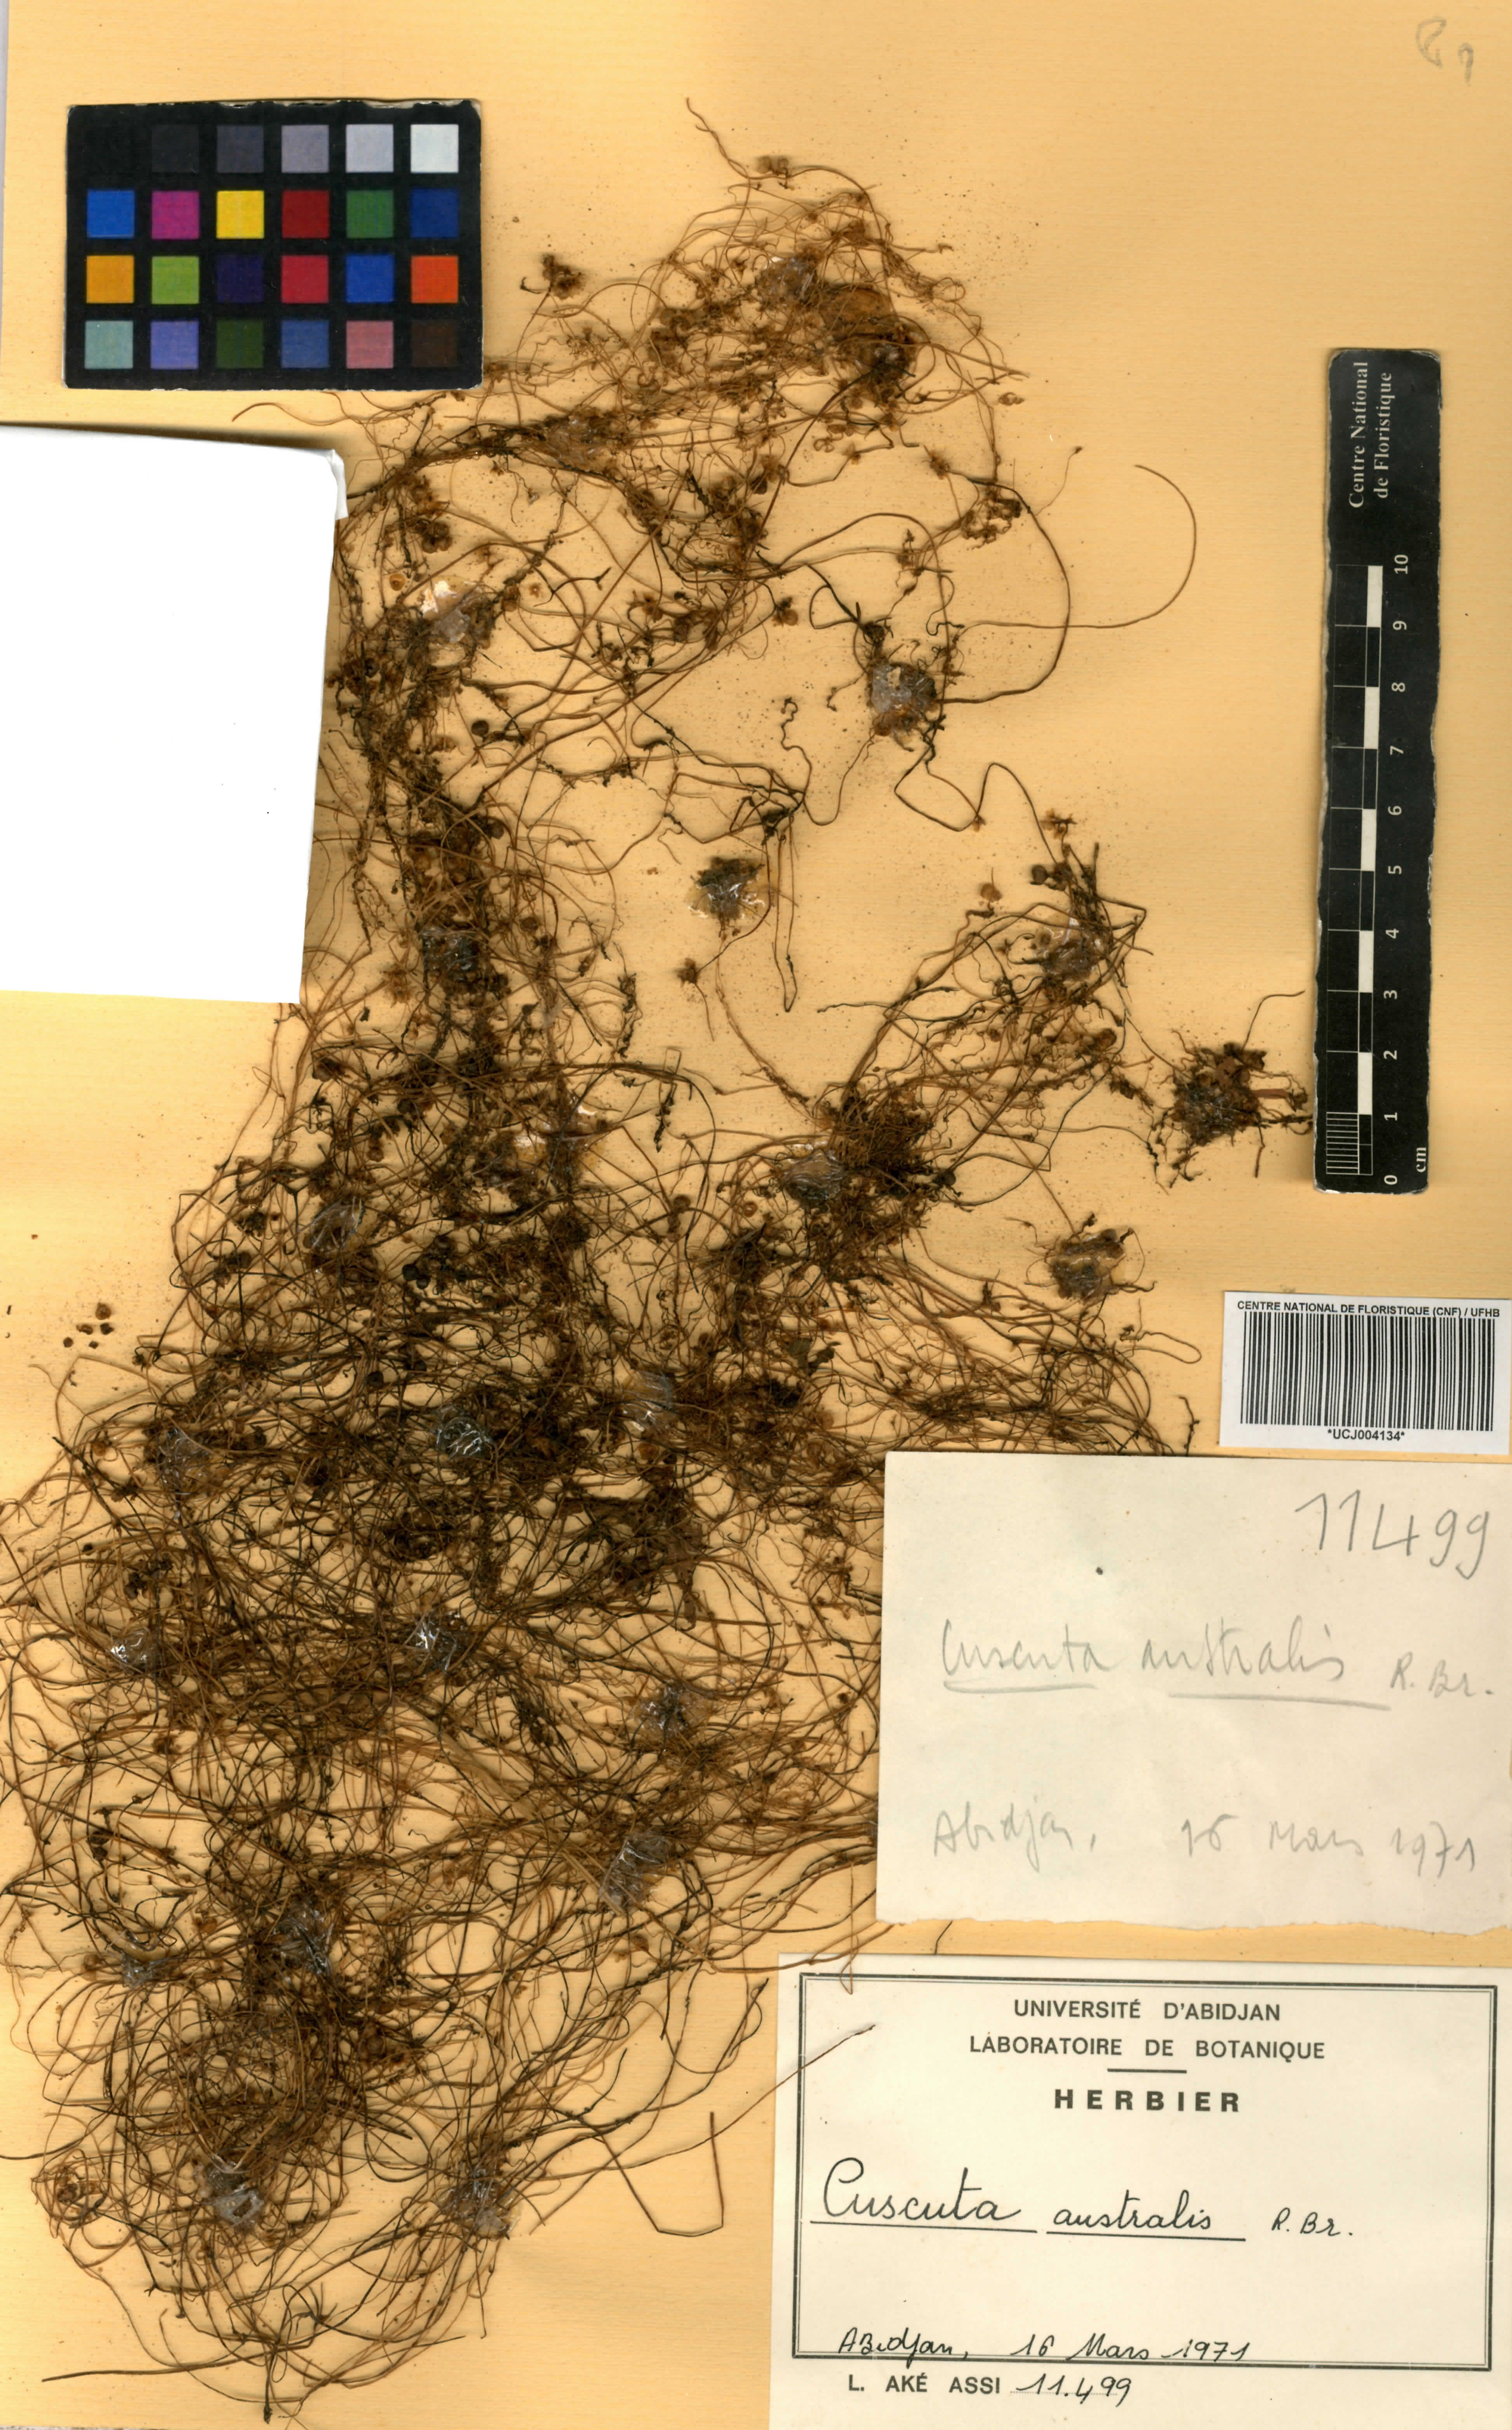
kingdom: Plantae
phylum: Tracheophyta
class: Magnoliopsida
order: Solanales
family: Convolvulaceae
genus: Cuscuta
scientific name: Cuscuta australis
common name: Australian dodder
